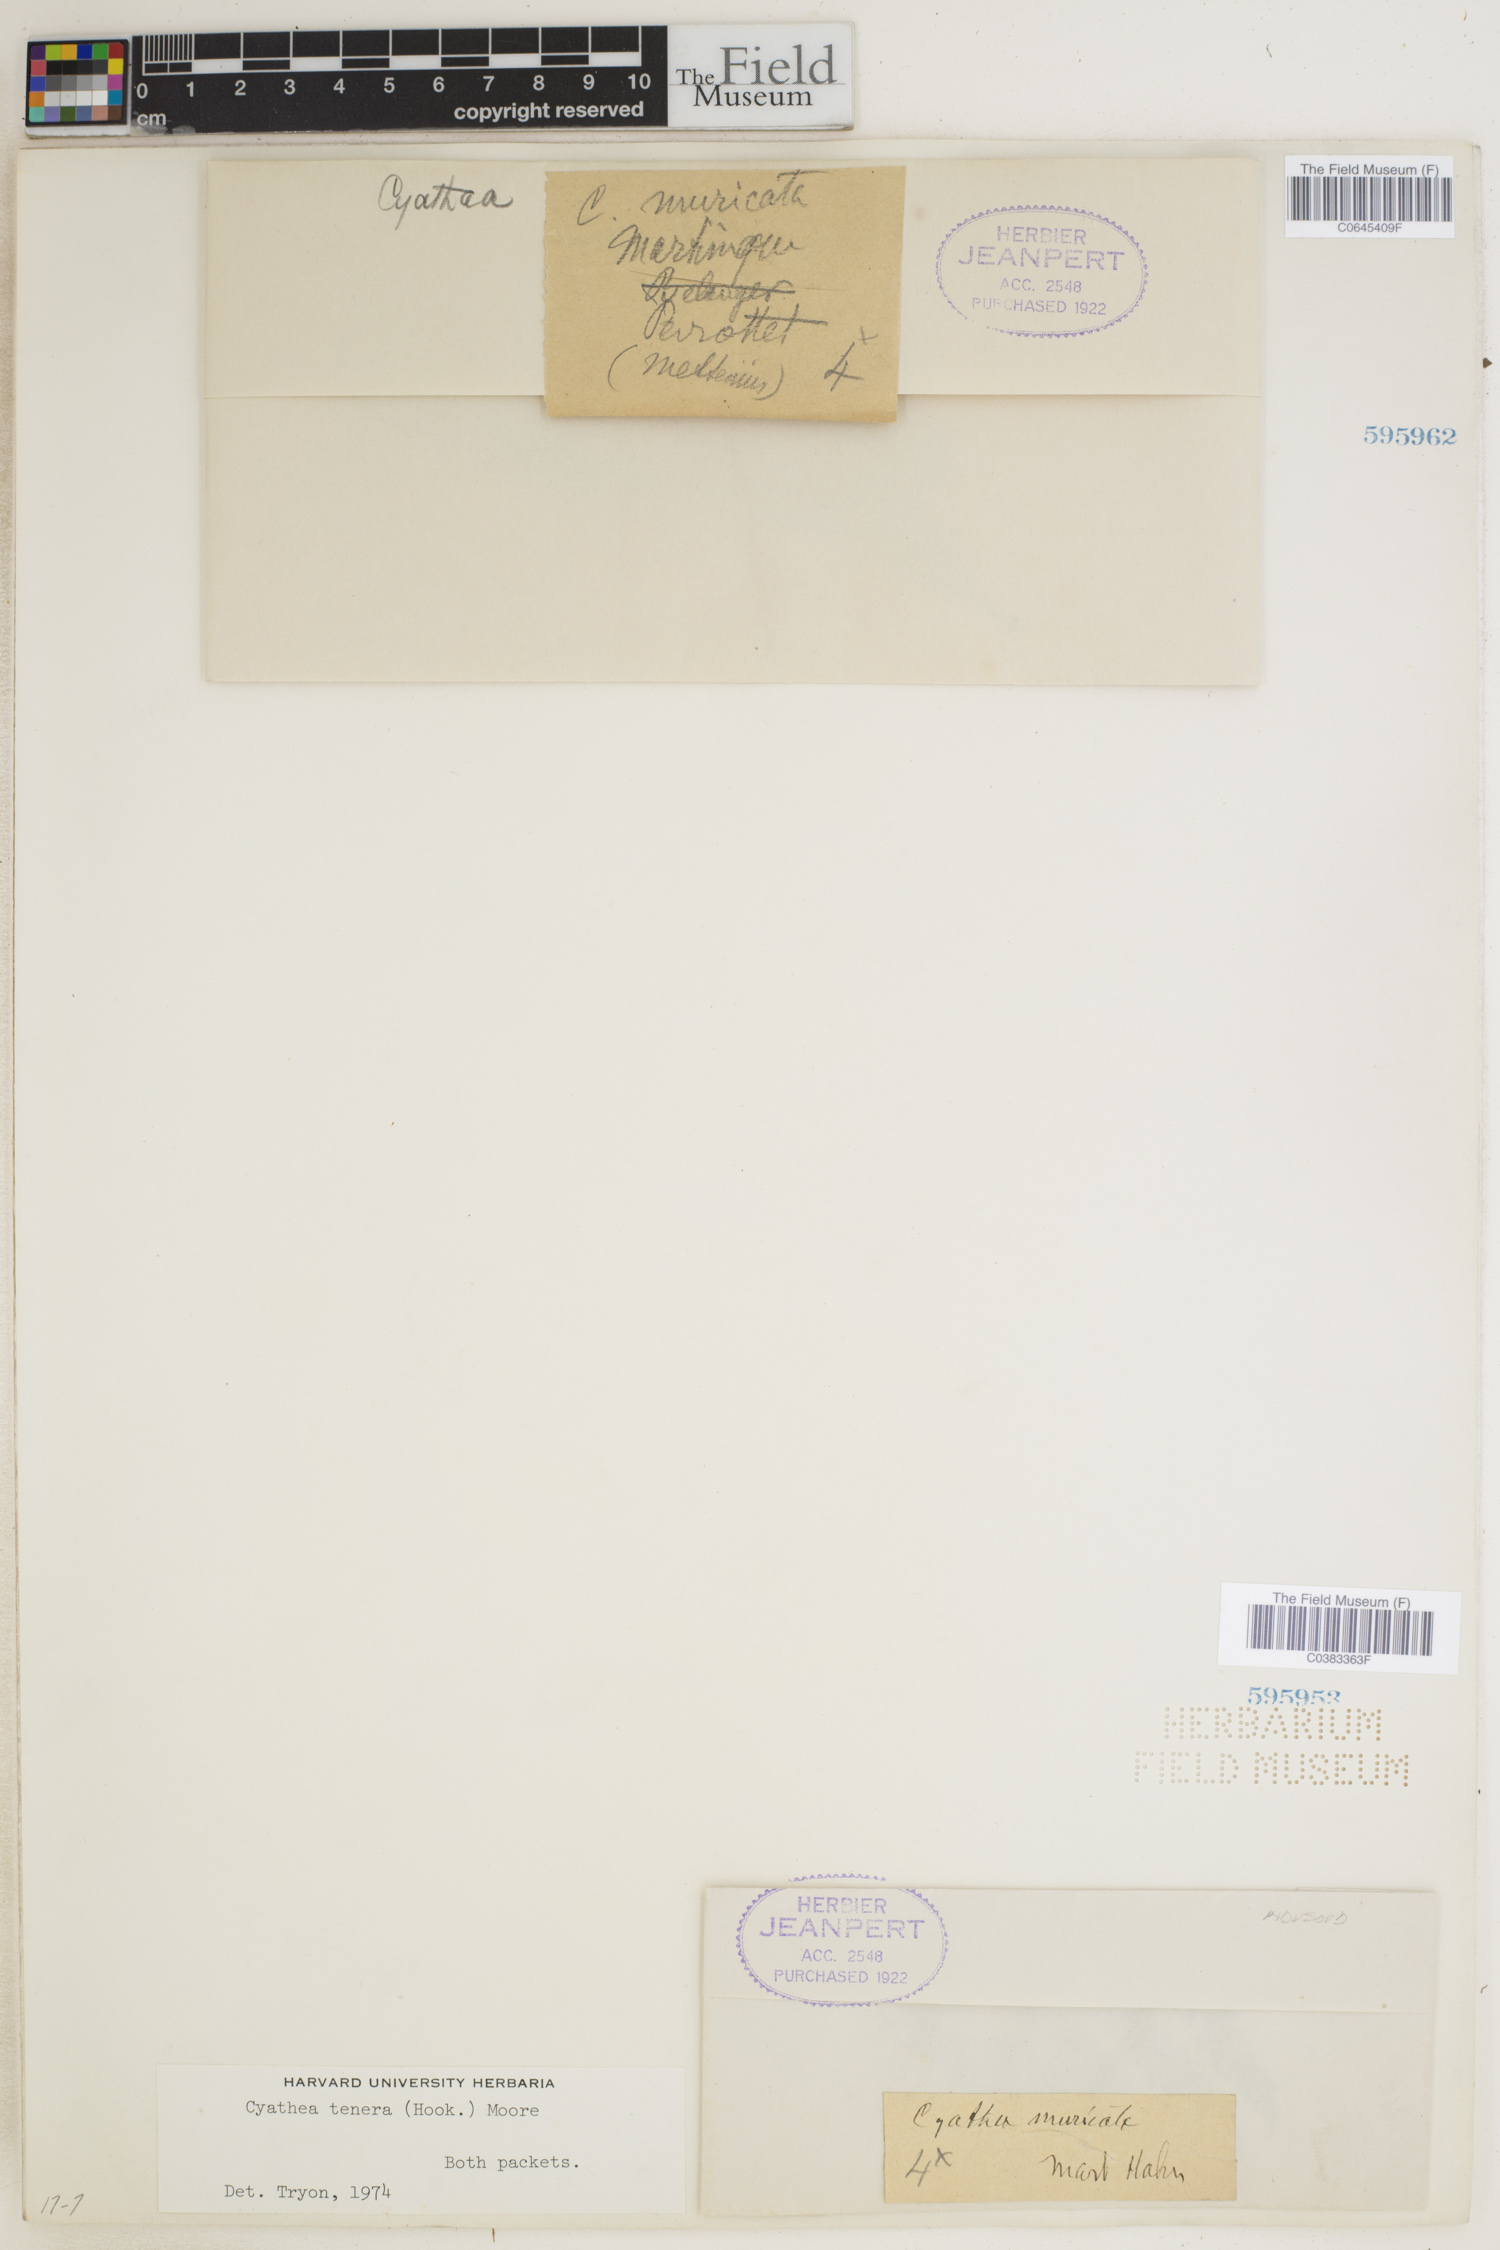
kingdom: Plantae
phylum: Tracheophyta
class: Polypodiopsida
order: Cyatheales
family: Cyatheaceae
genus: Cyathea
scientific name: Cyathea tenera
